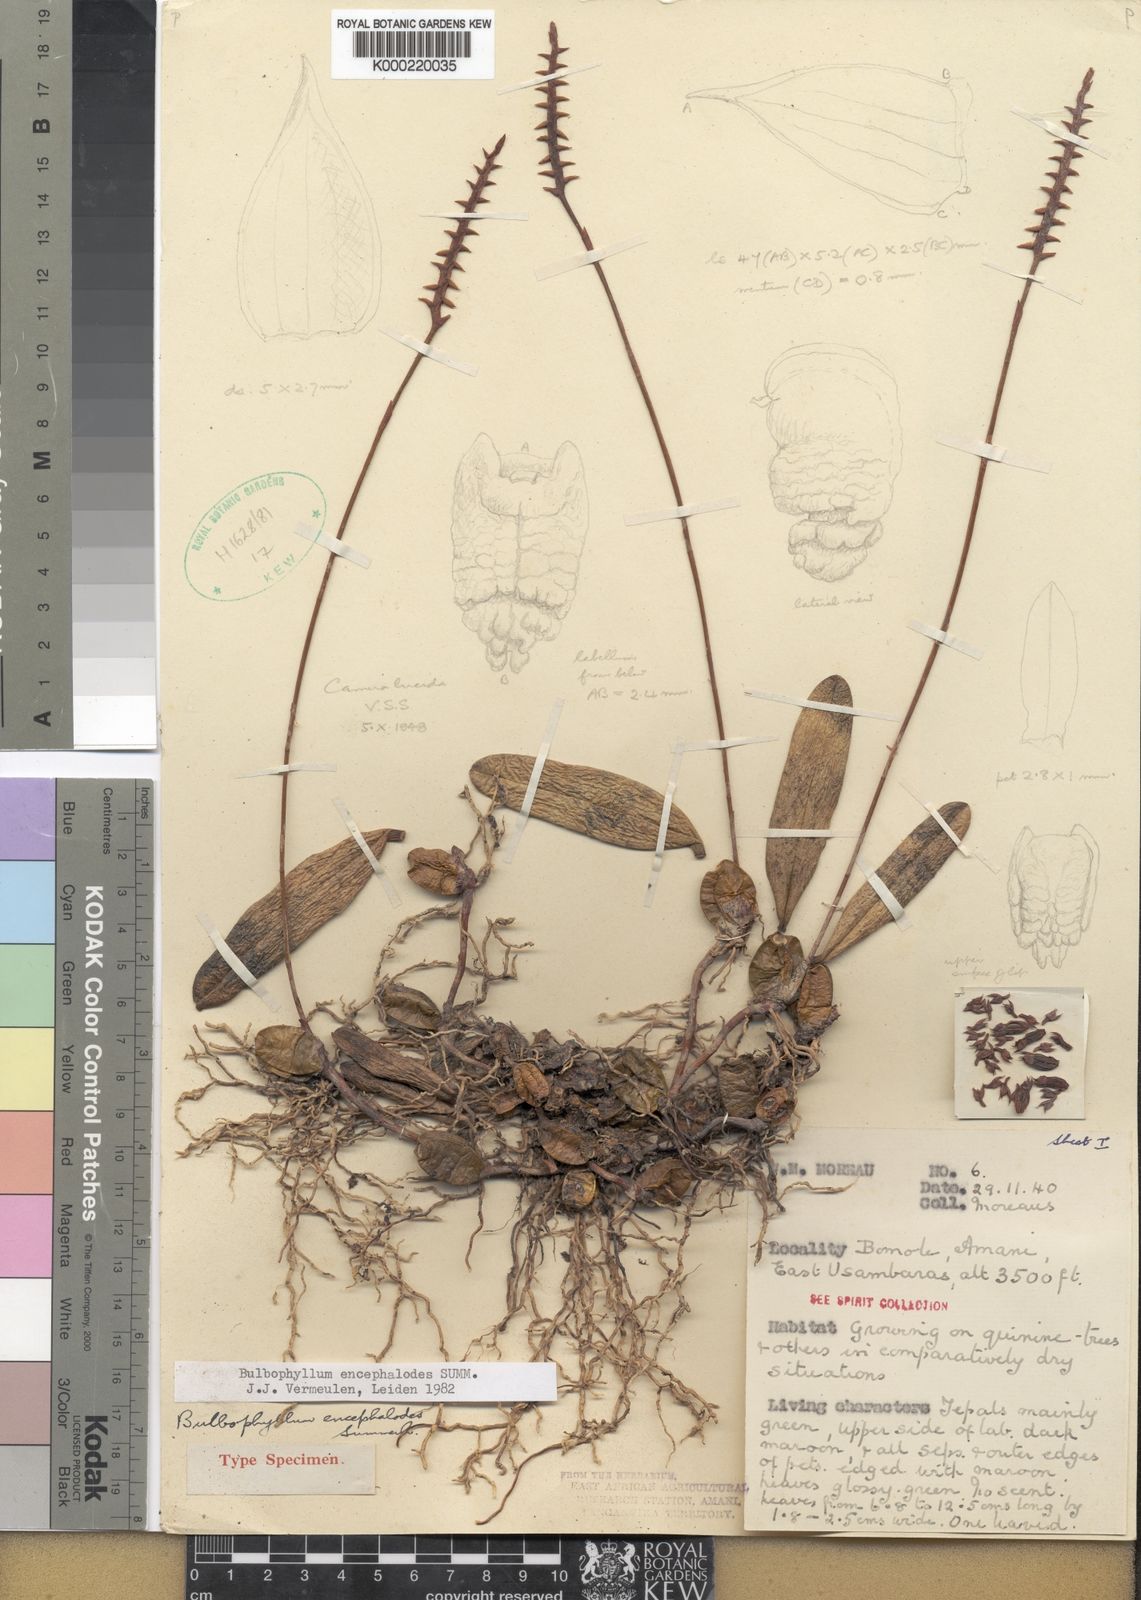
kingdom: Plantae
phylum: Tracheophyta
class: Liliopsida
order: Asparagales
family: Orchidaceae
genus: Bulbophyllum
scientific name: Bulbophyllum encephalodes
